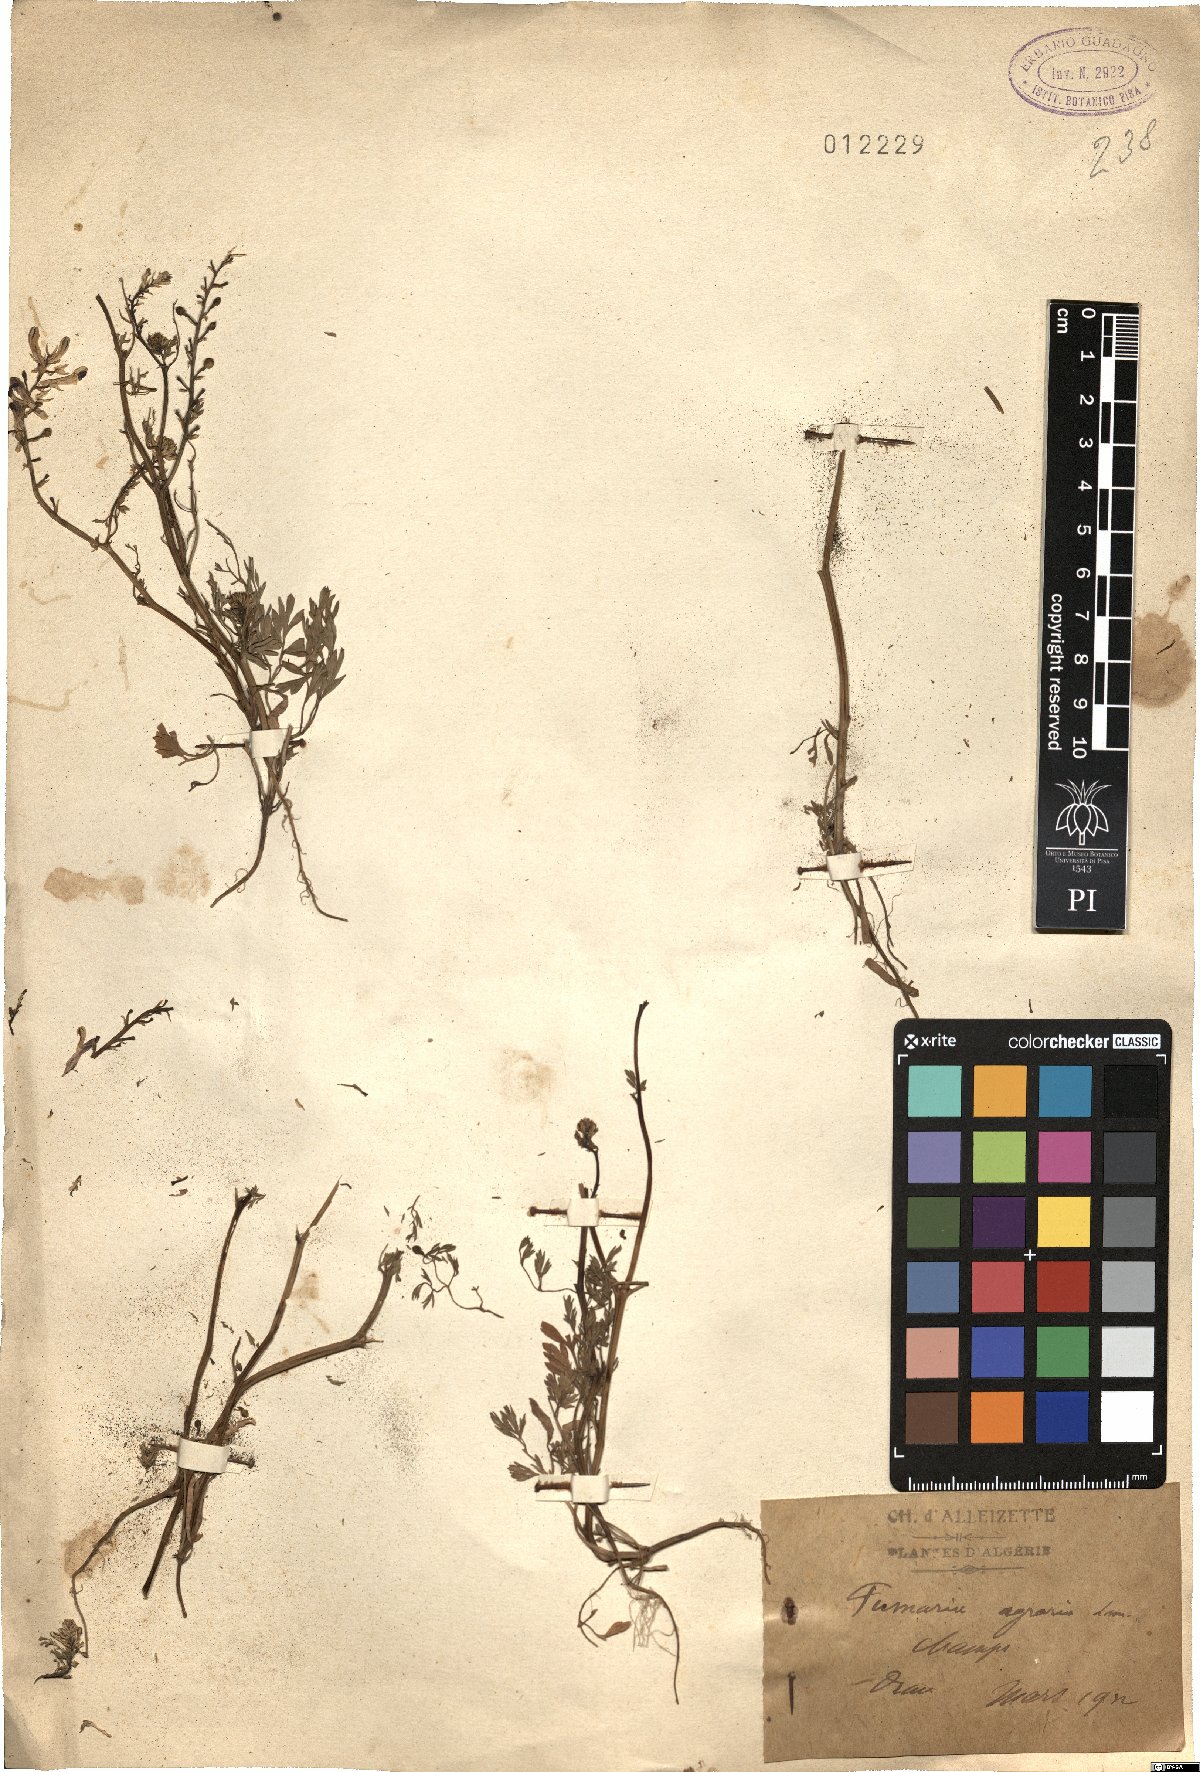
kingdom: Plantae
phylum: Tracheophyta
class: Magnoliopsida
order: Ranunculales
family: Papaveraceae
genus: Fumaria
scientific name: Fumaria agraria
